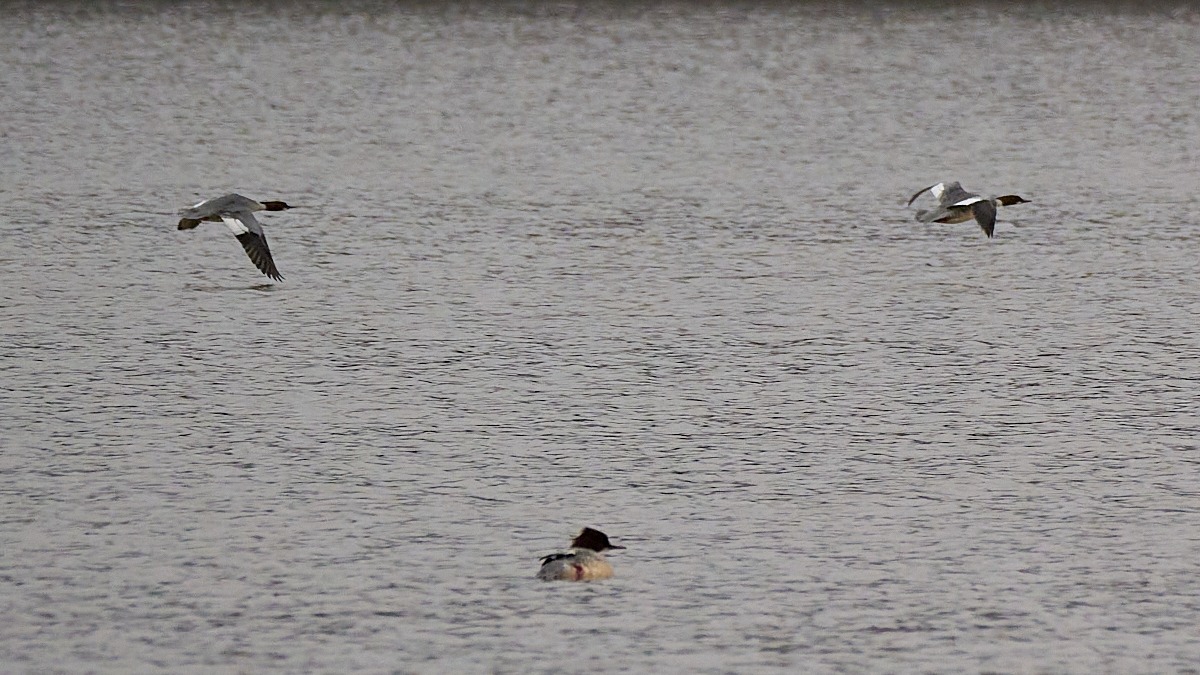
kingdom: Animalia
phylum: Chordata
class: Aves
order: Anseriformes
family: Anatidae
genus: Mergus
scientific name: Mergus merganser
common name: Stor skallesluger
